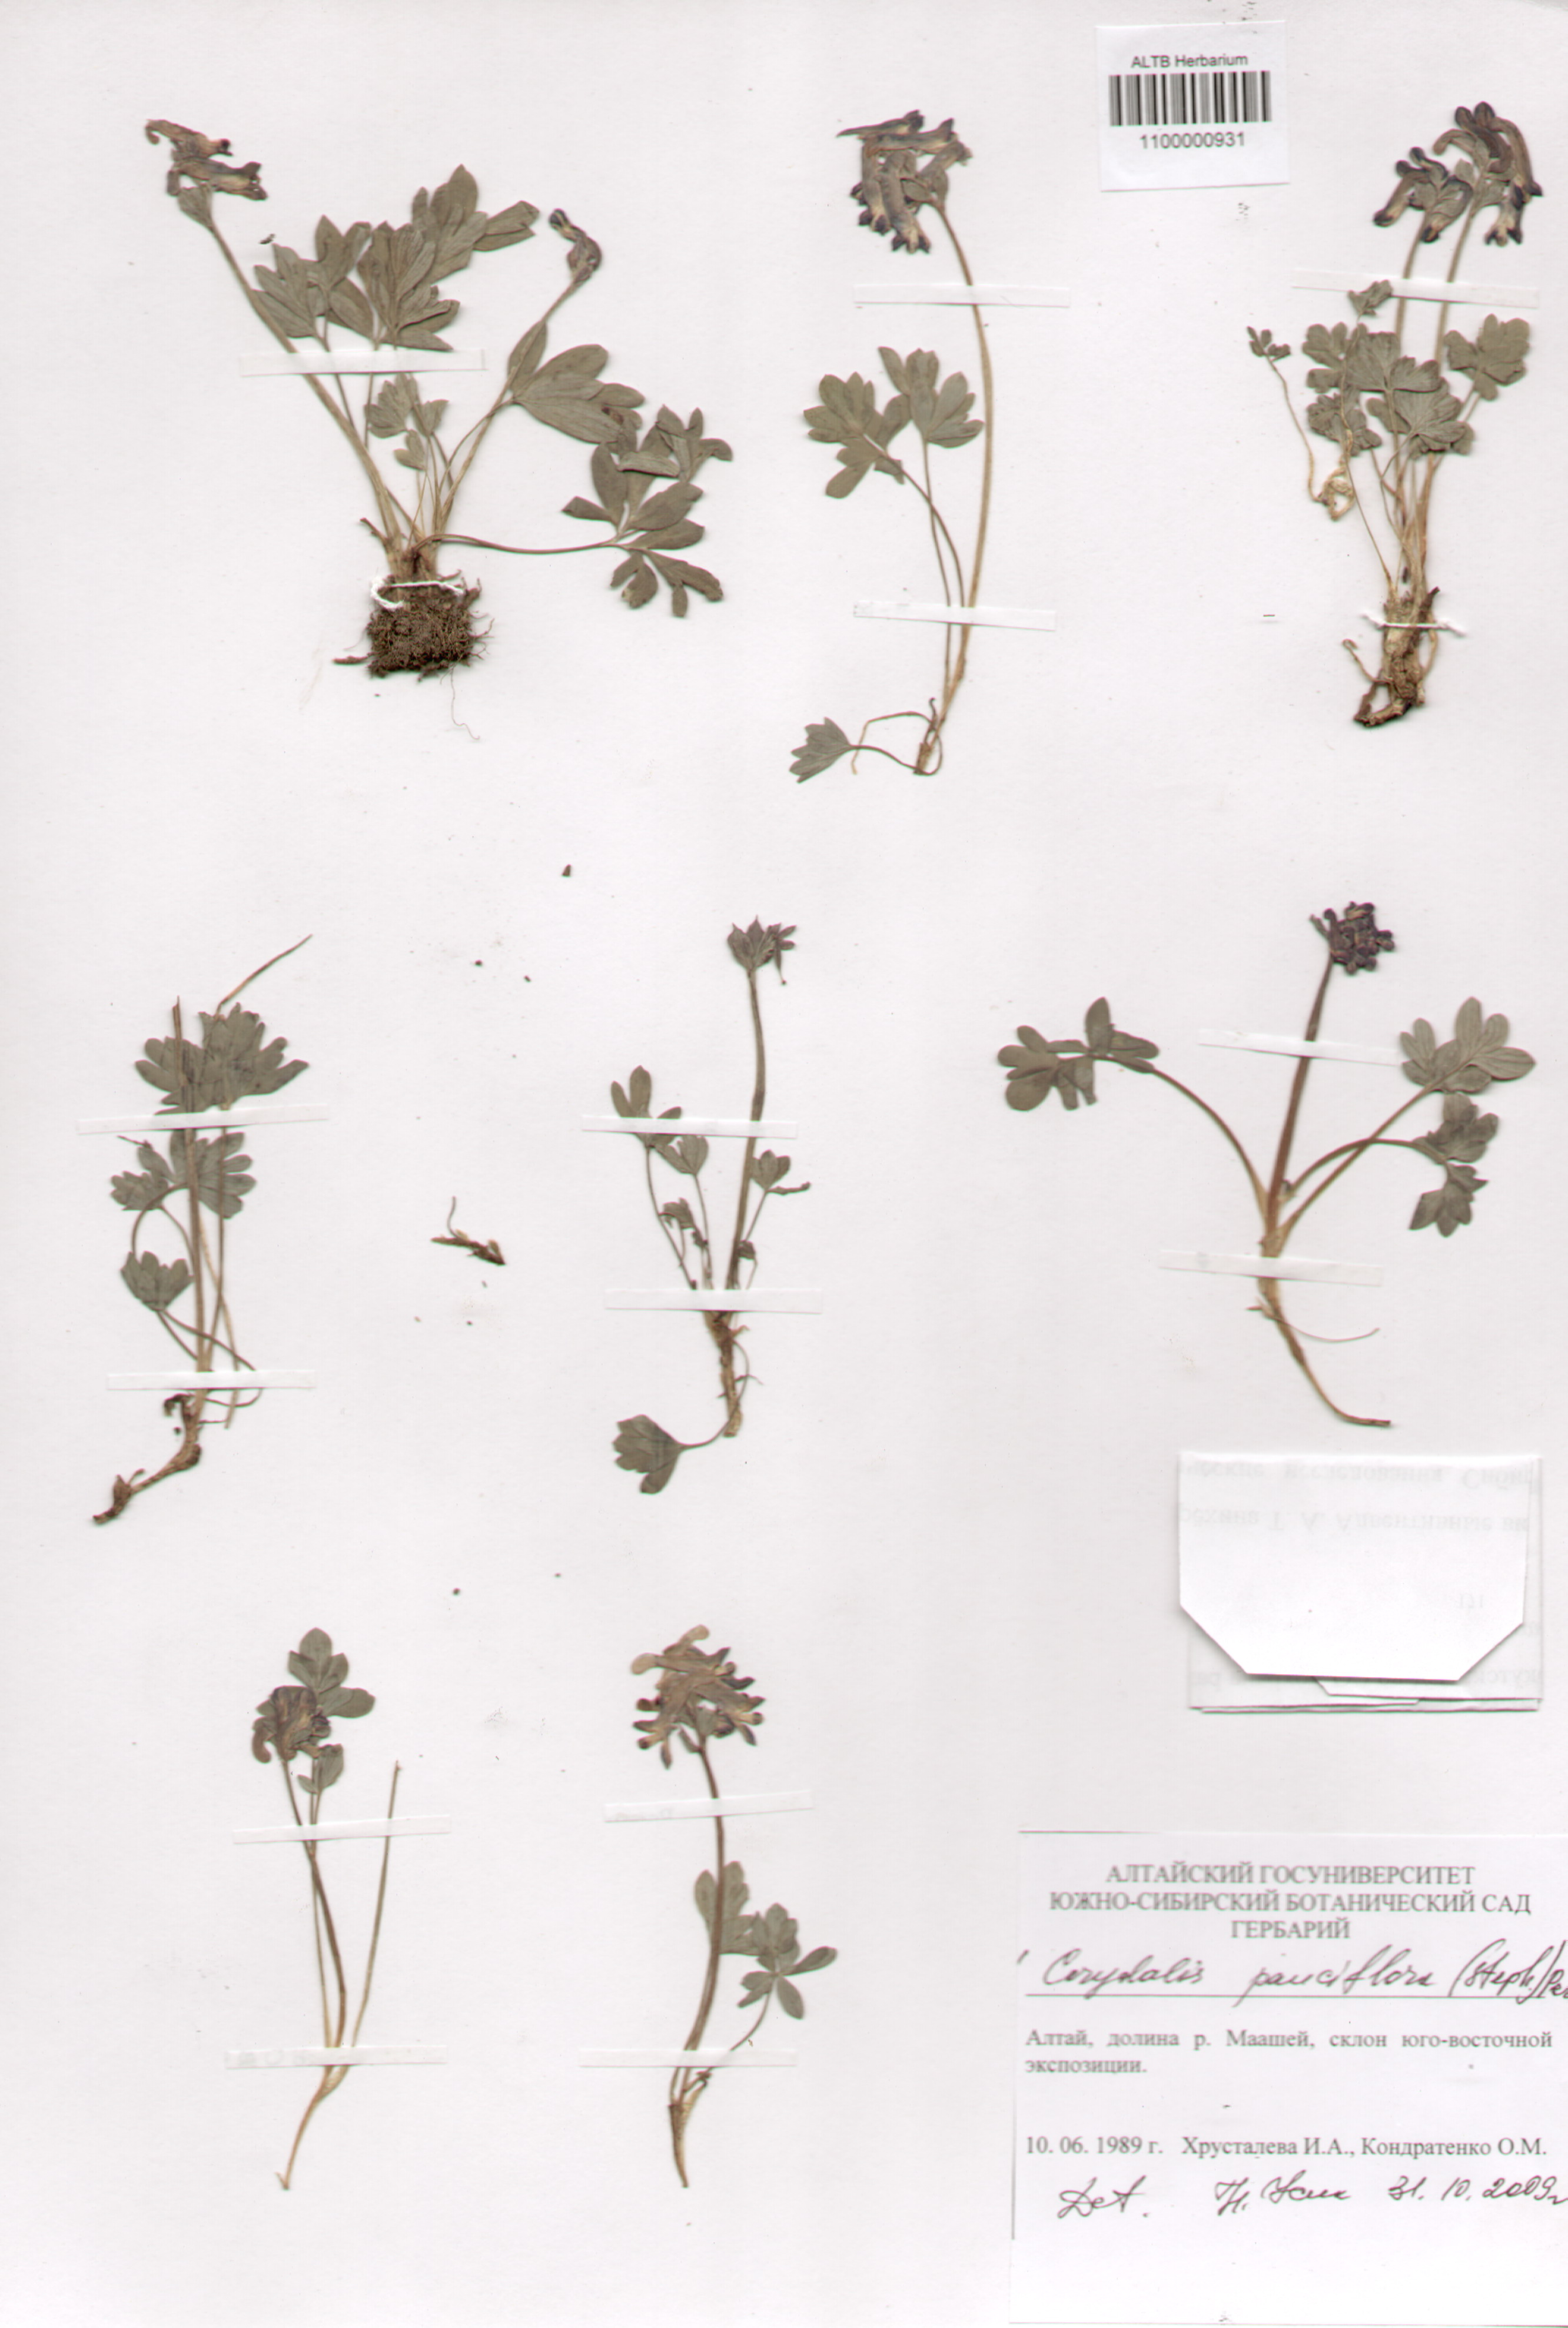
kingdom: Plantae
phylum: Tracheophyta
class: Magnoliopsida
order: Ranunculales
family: Papaveraceae
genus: Corydalis
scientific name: Corydalis pauciflora
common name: Blue corydalis
